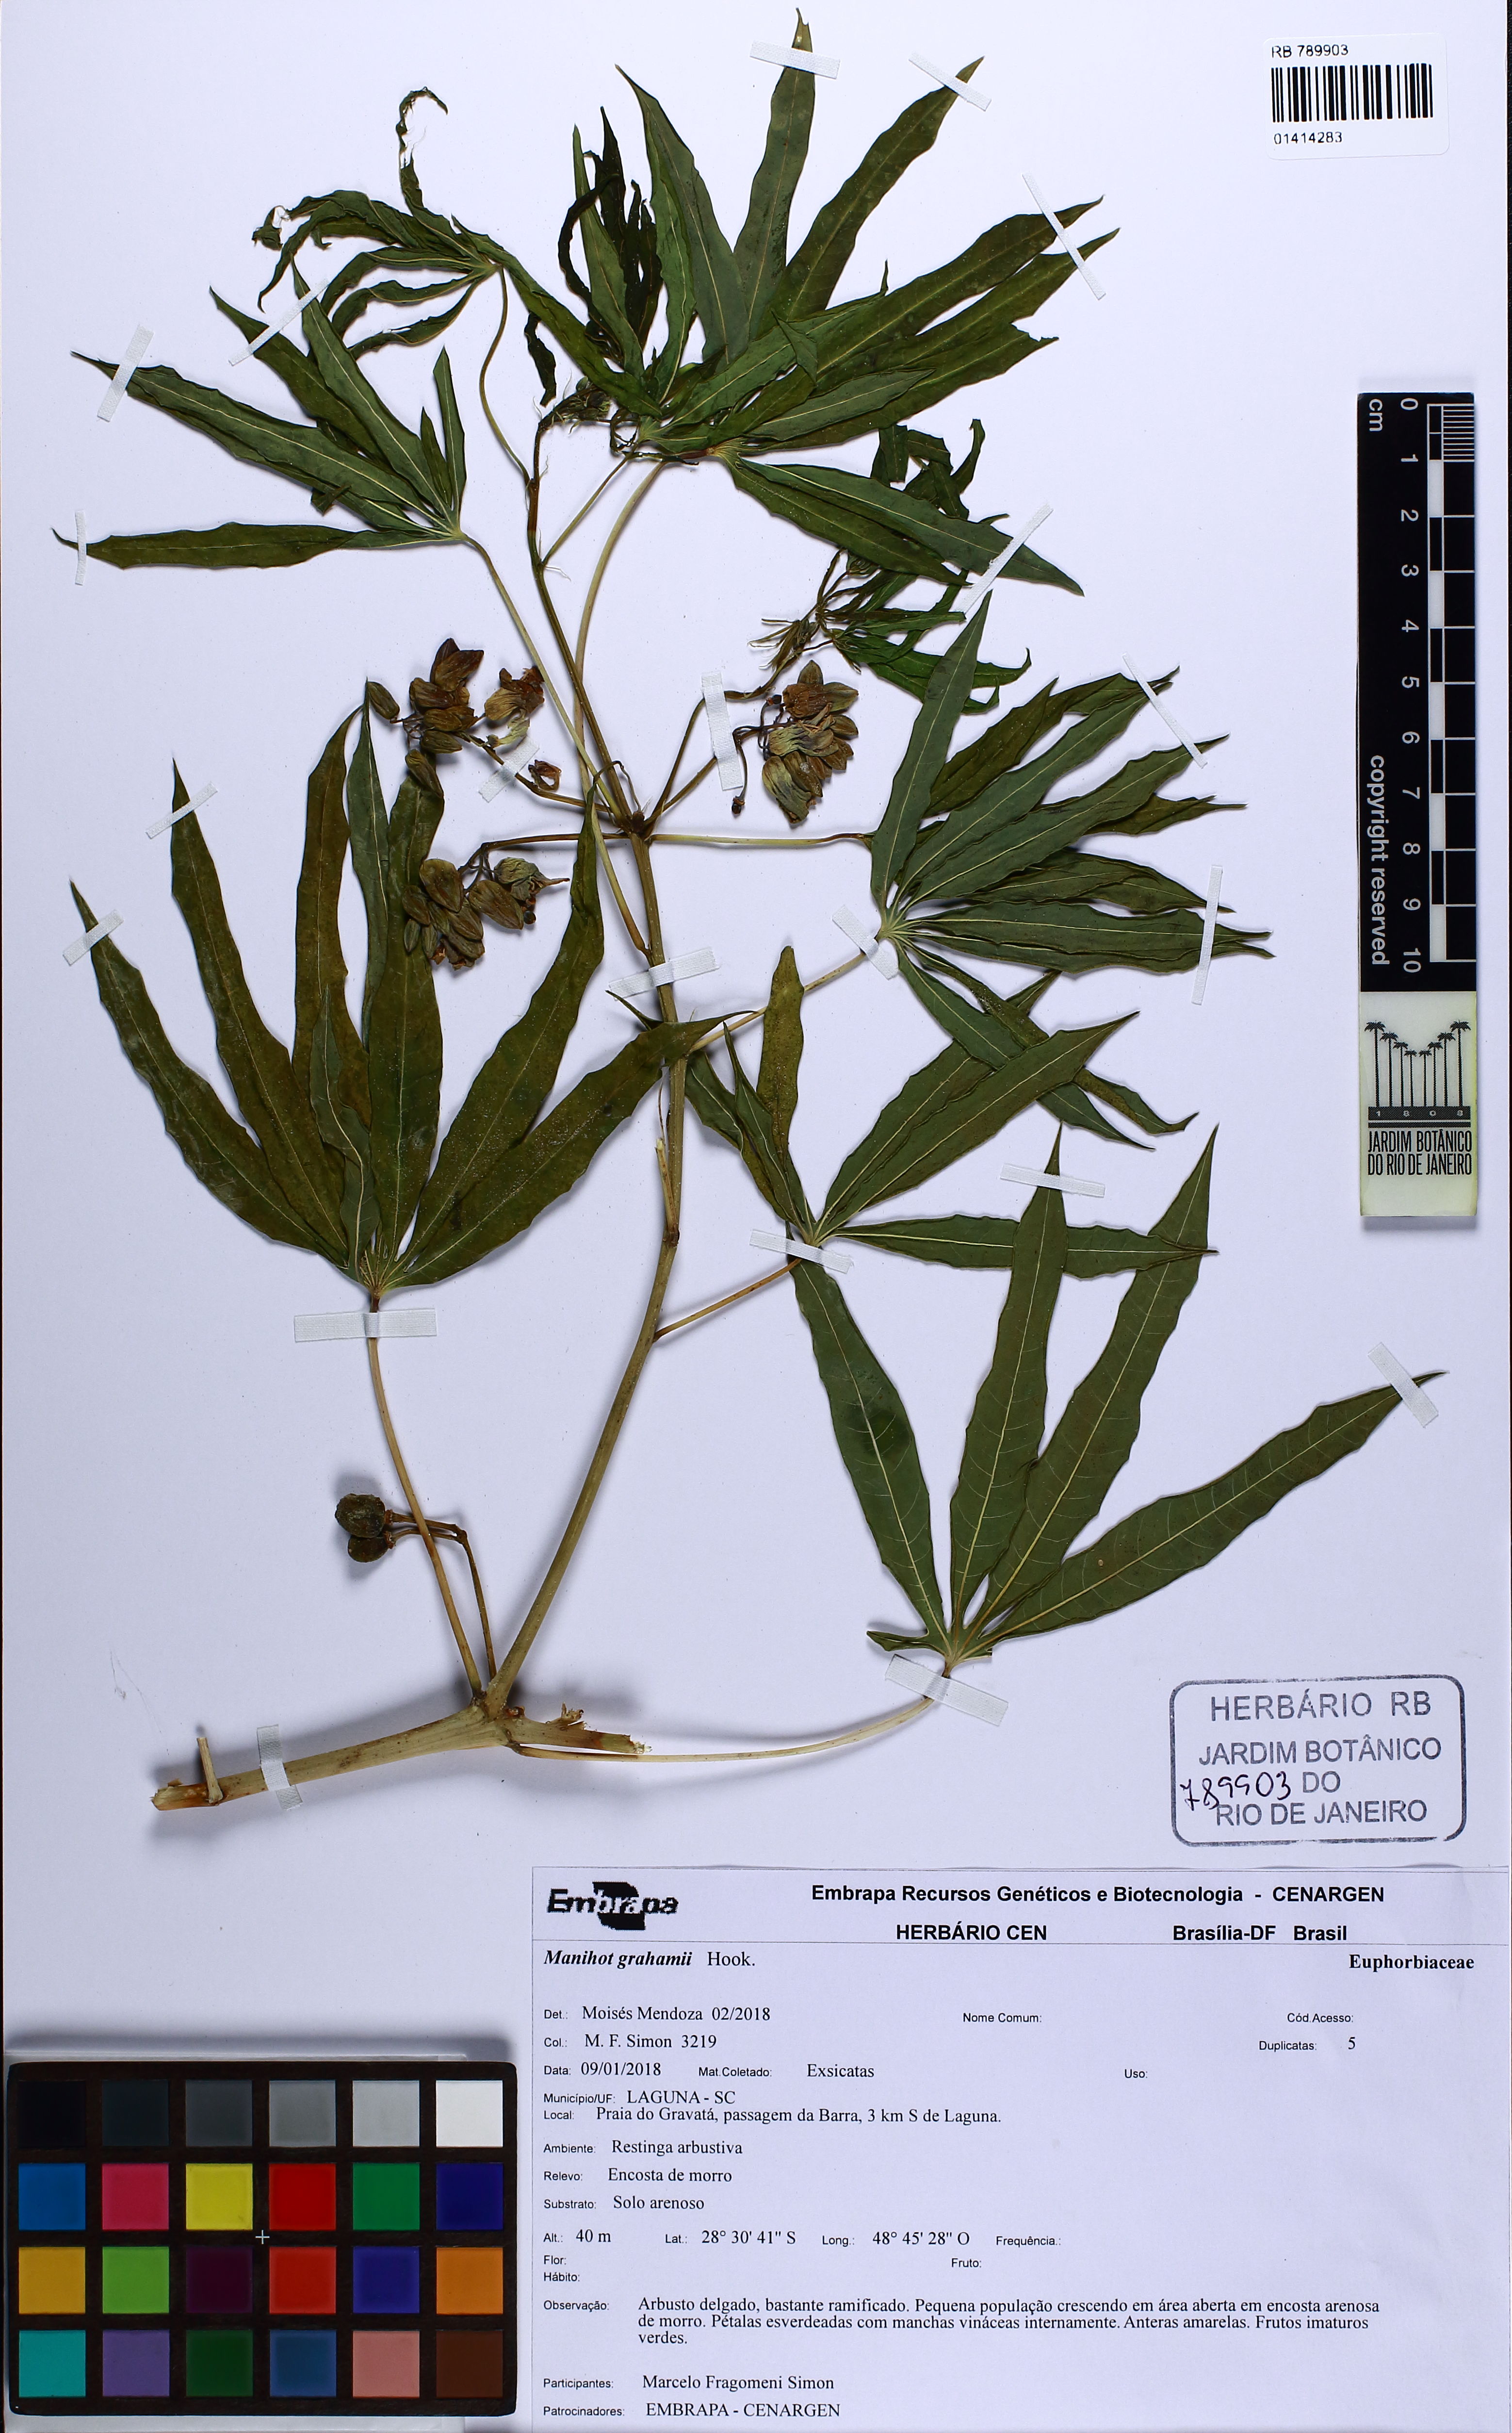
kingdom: Plantae
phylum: Tracheophyta
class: Magnoliopsida
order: Malpighiales
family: Euphorbiaceae
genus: Manihot
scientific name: Manihot grahamii
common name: Graham's manihot
